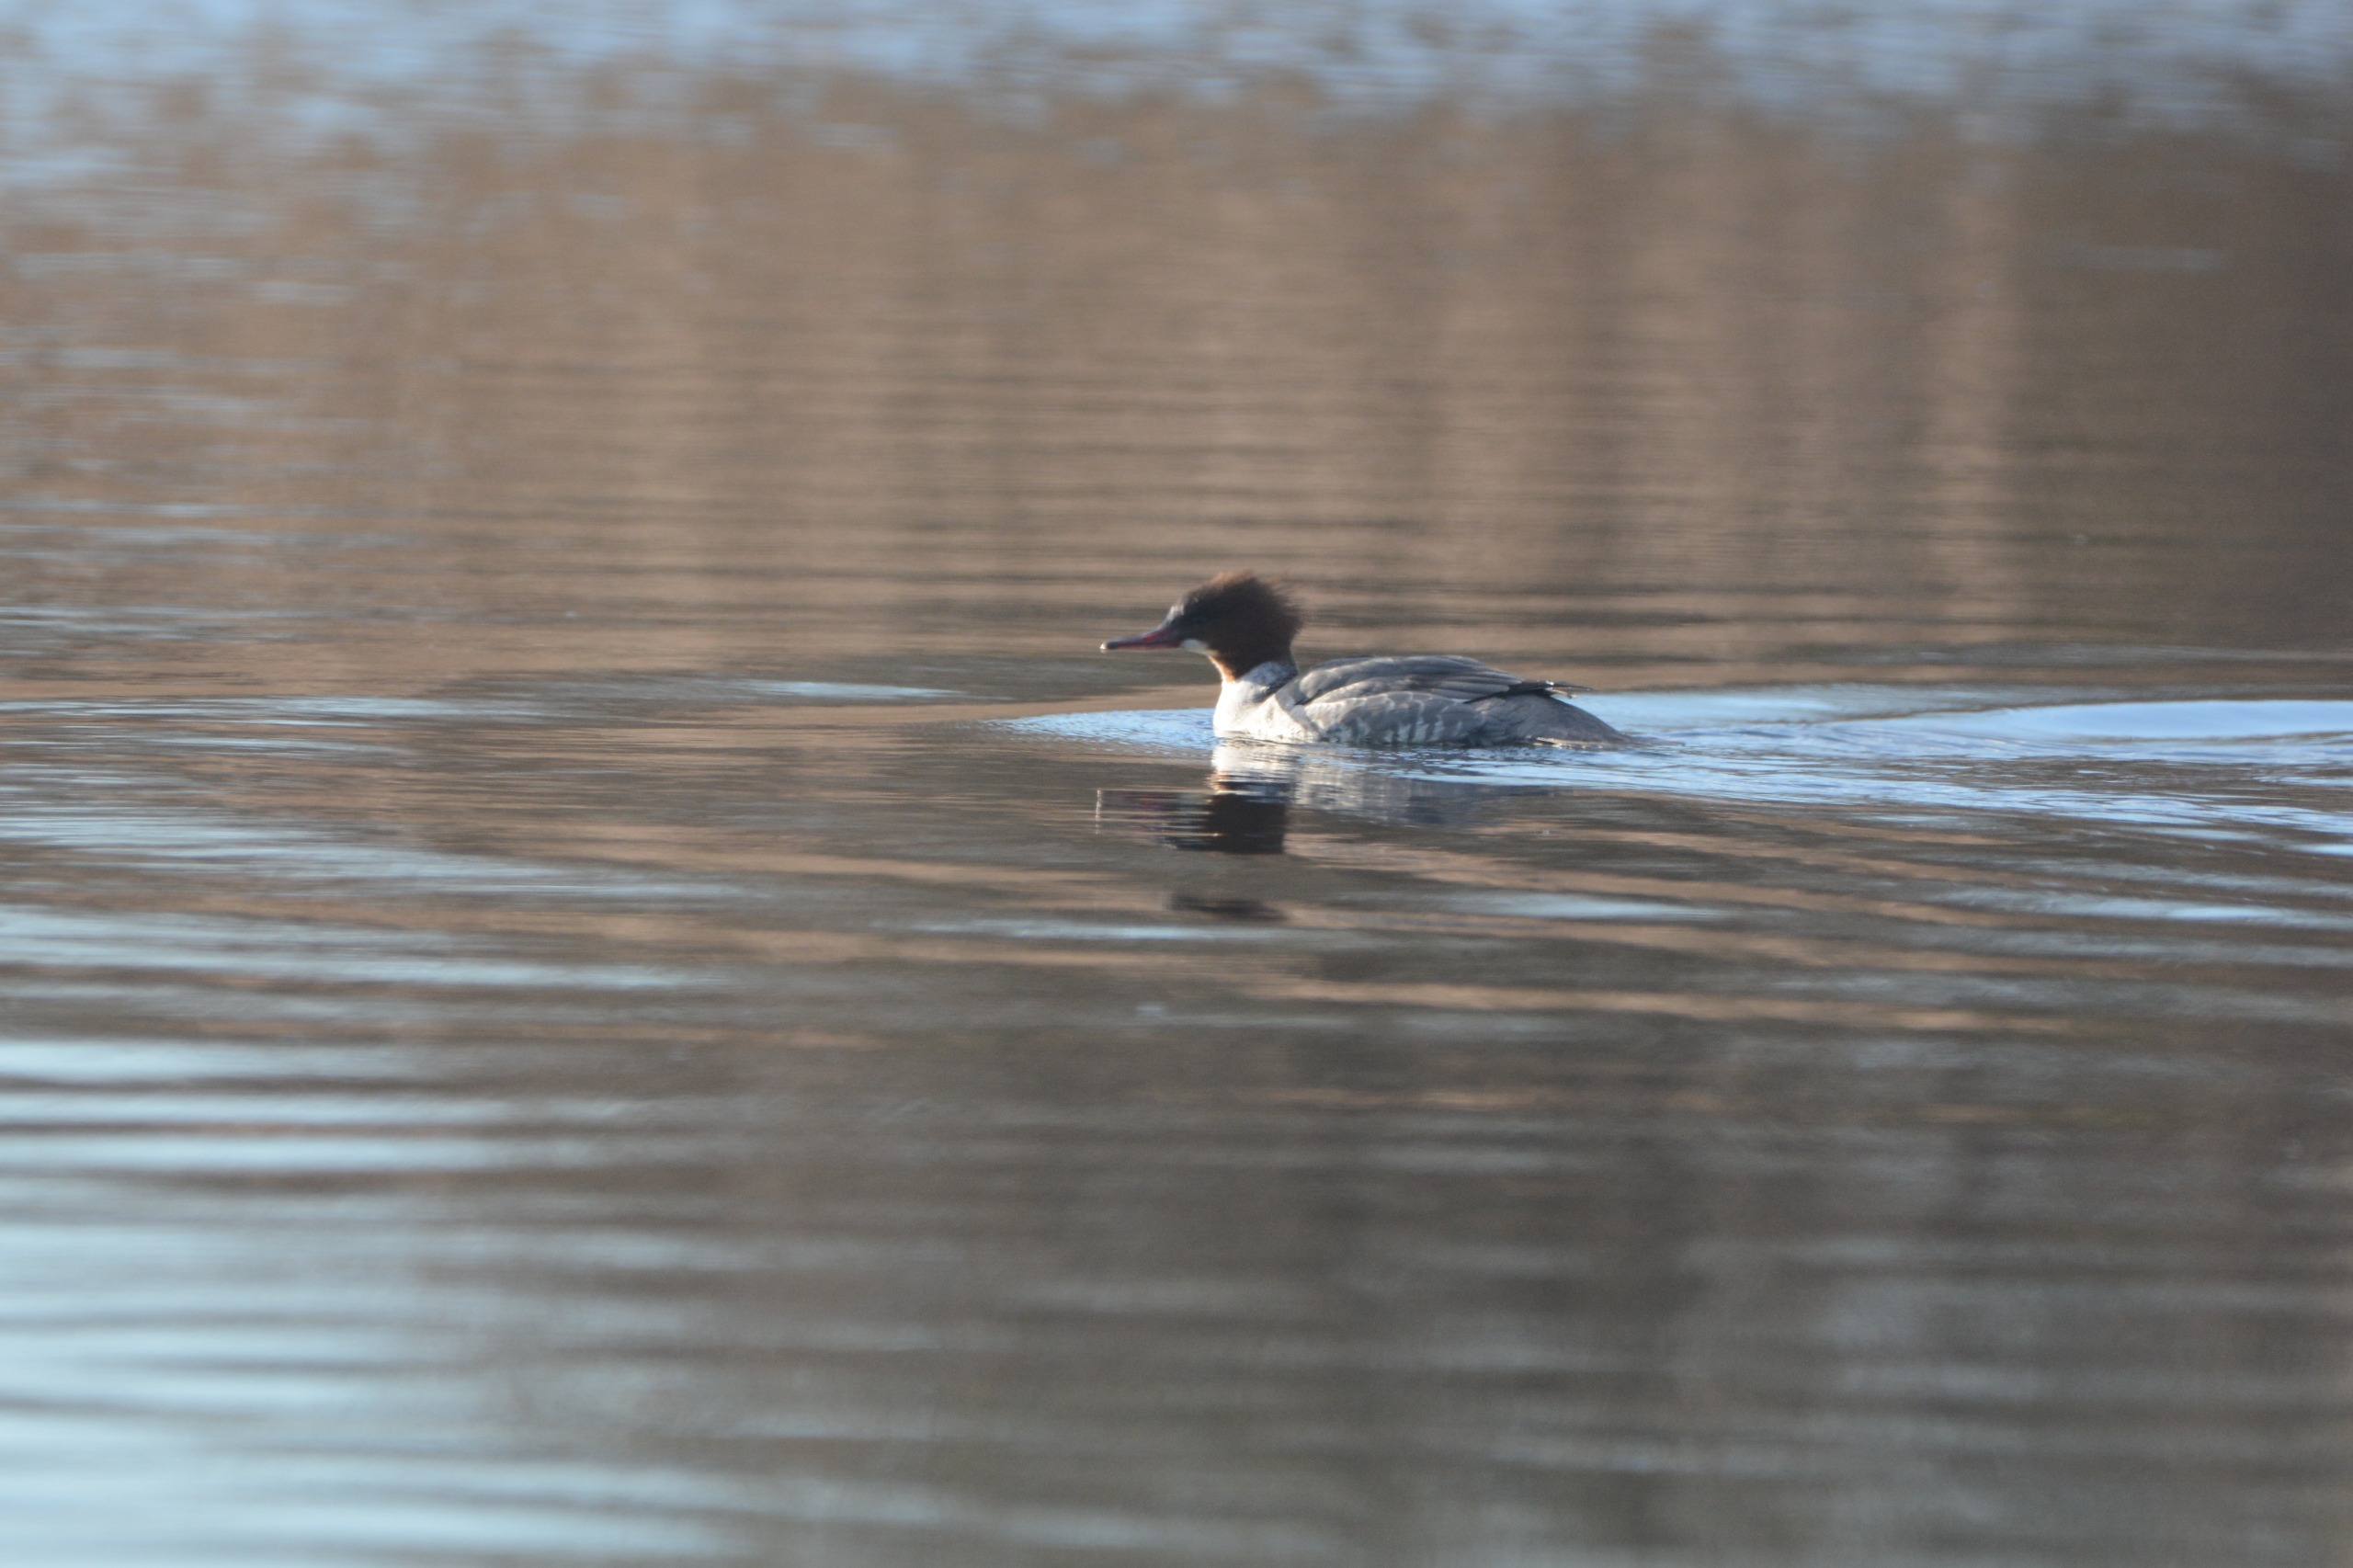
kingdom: Animalia
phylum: Chordata
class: Aves
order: Anseriformes
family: Anatidae
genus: Mergus
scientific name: Mergus merganser
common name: Stor skallesluger
